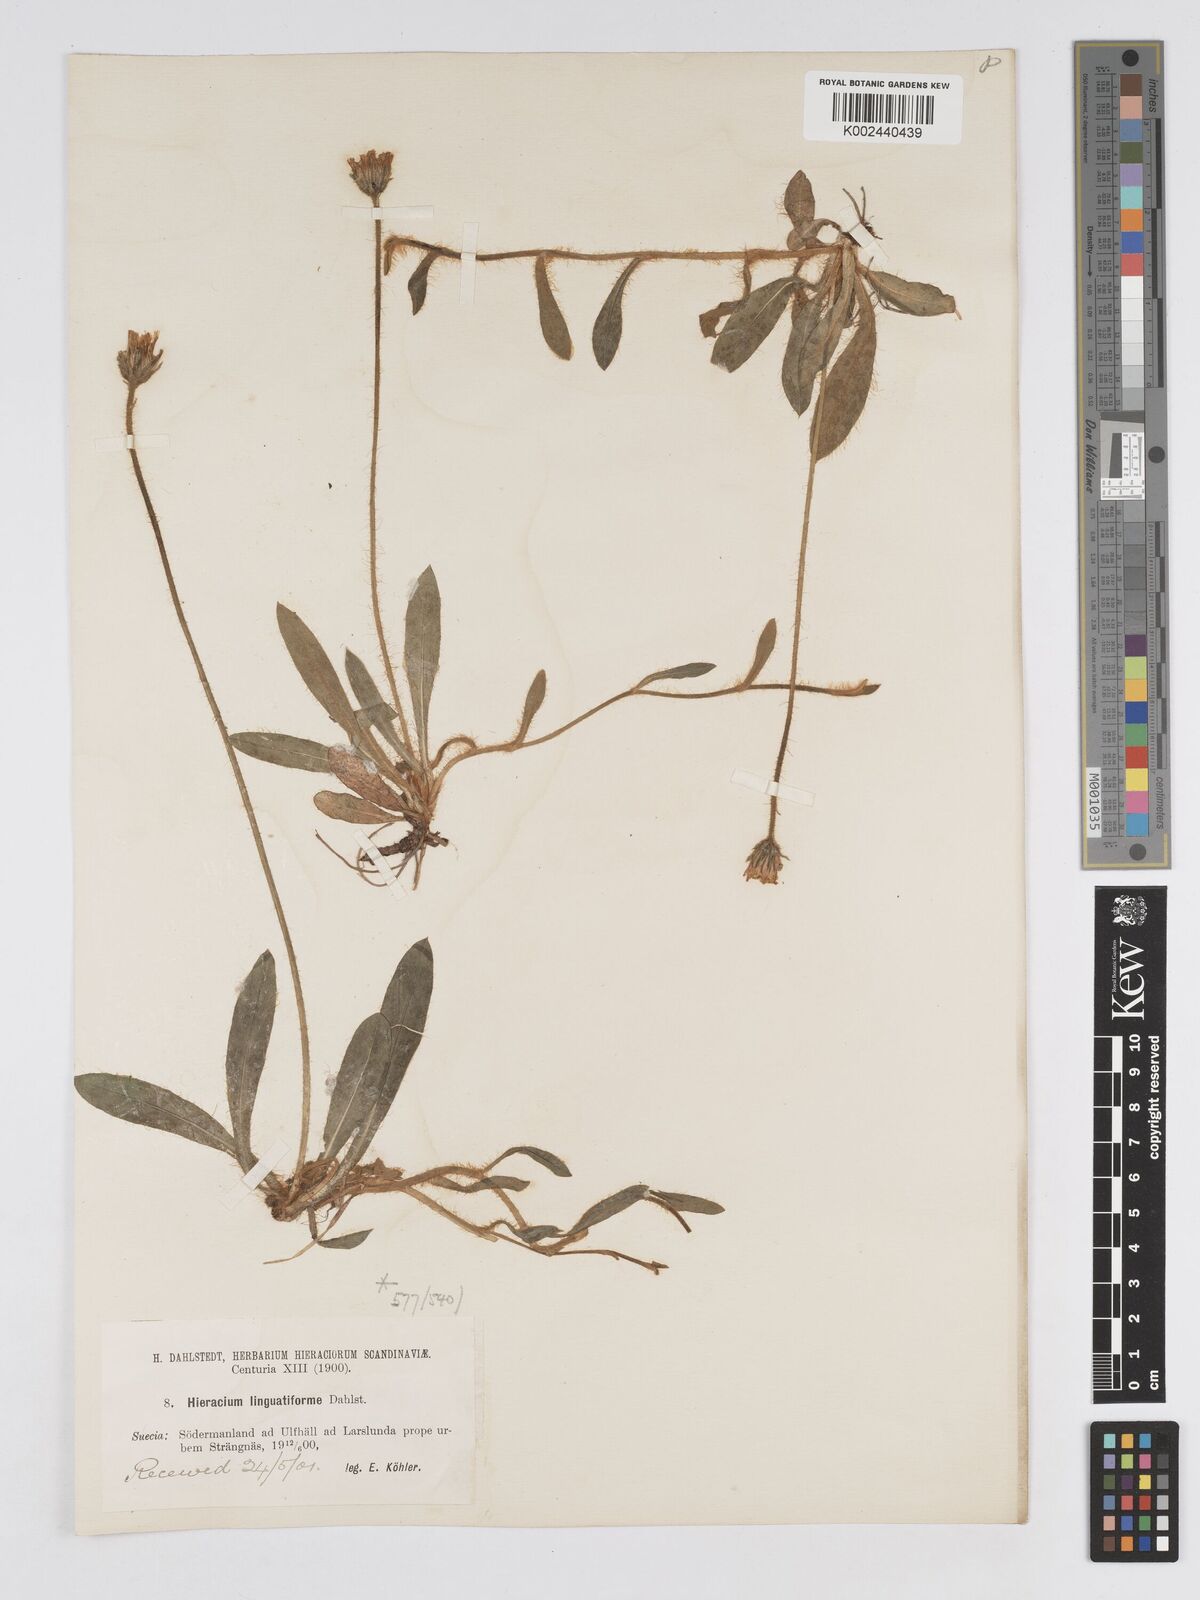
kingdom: Plantae
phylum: Tracheophyta
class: Magnoliopsida
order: Asterales
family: Asteraceae
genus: Hieracium
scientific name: Hieracium
